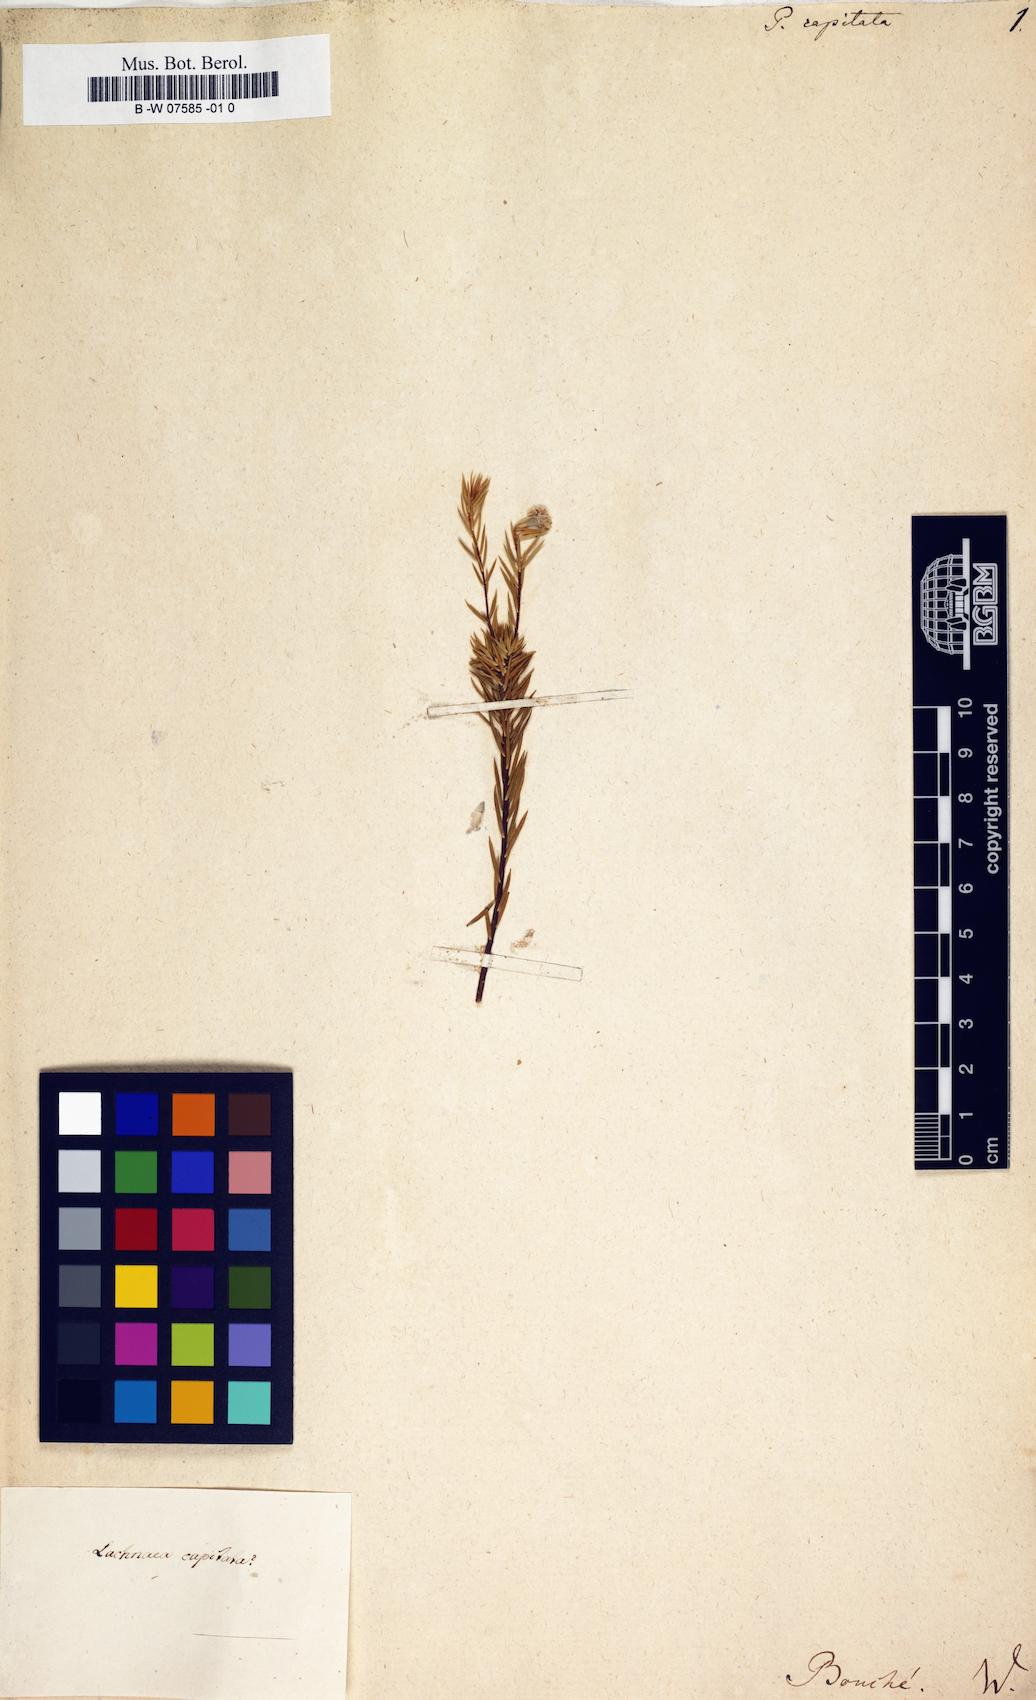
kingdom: Plantae
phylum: Tracheophyta
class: Magnoliopsida
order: Malvales
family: Thymelaeaceae
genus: Lachnaea
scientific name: Lachnaea capitata
